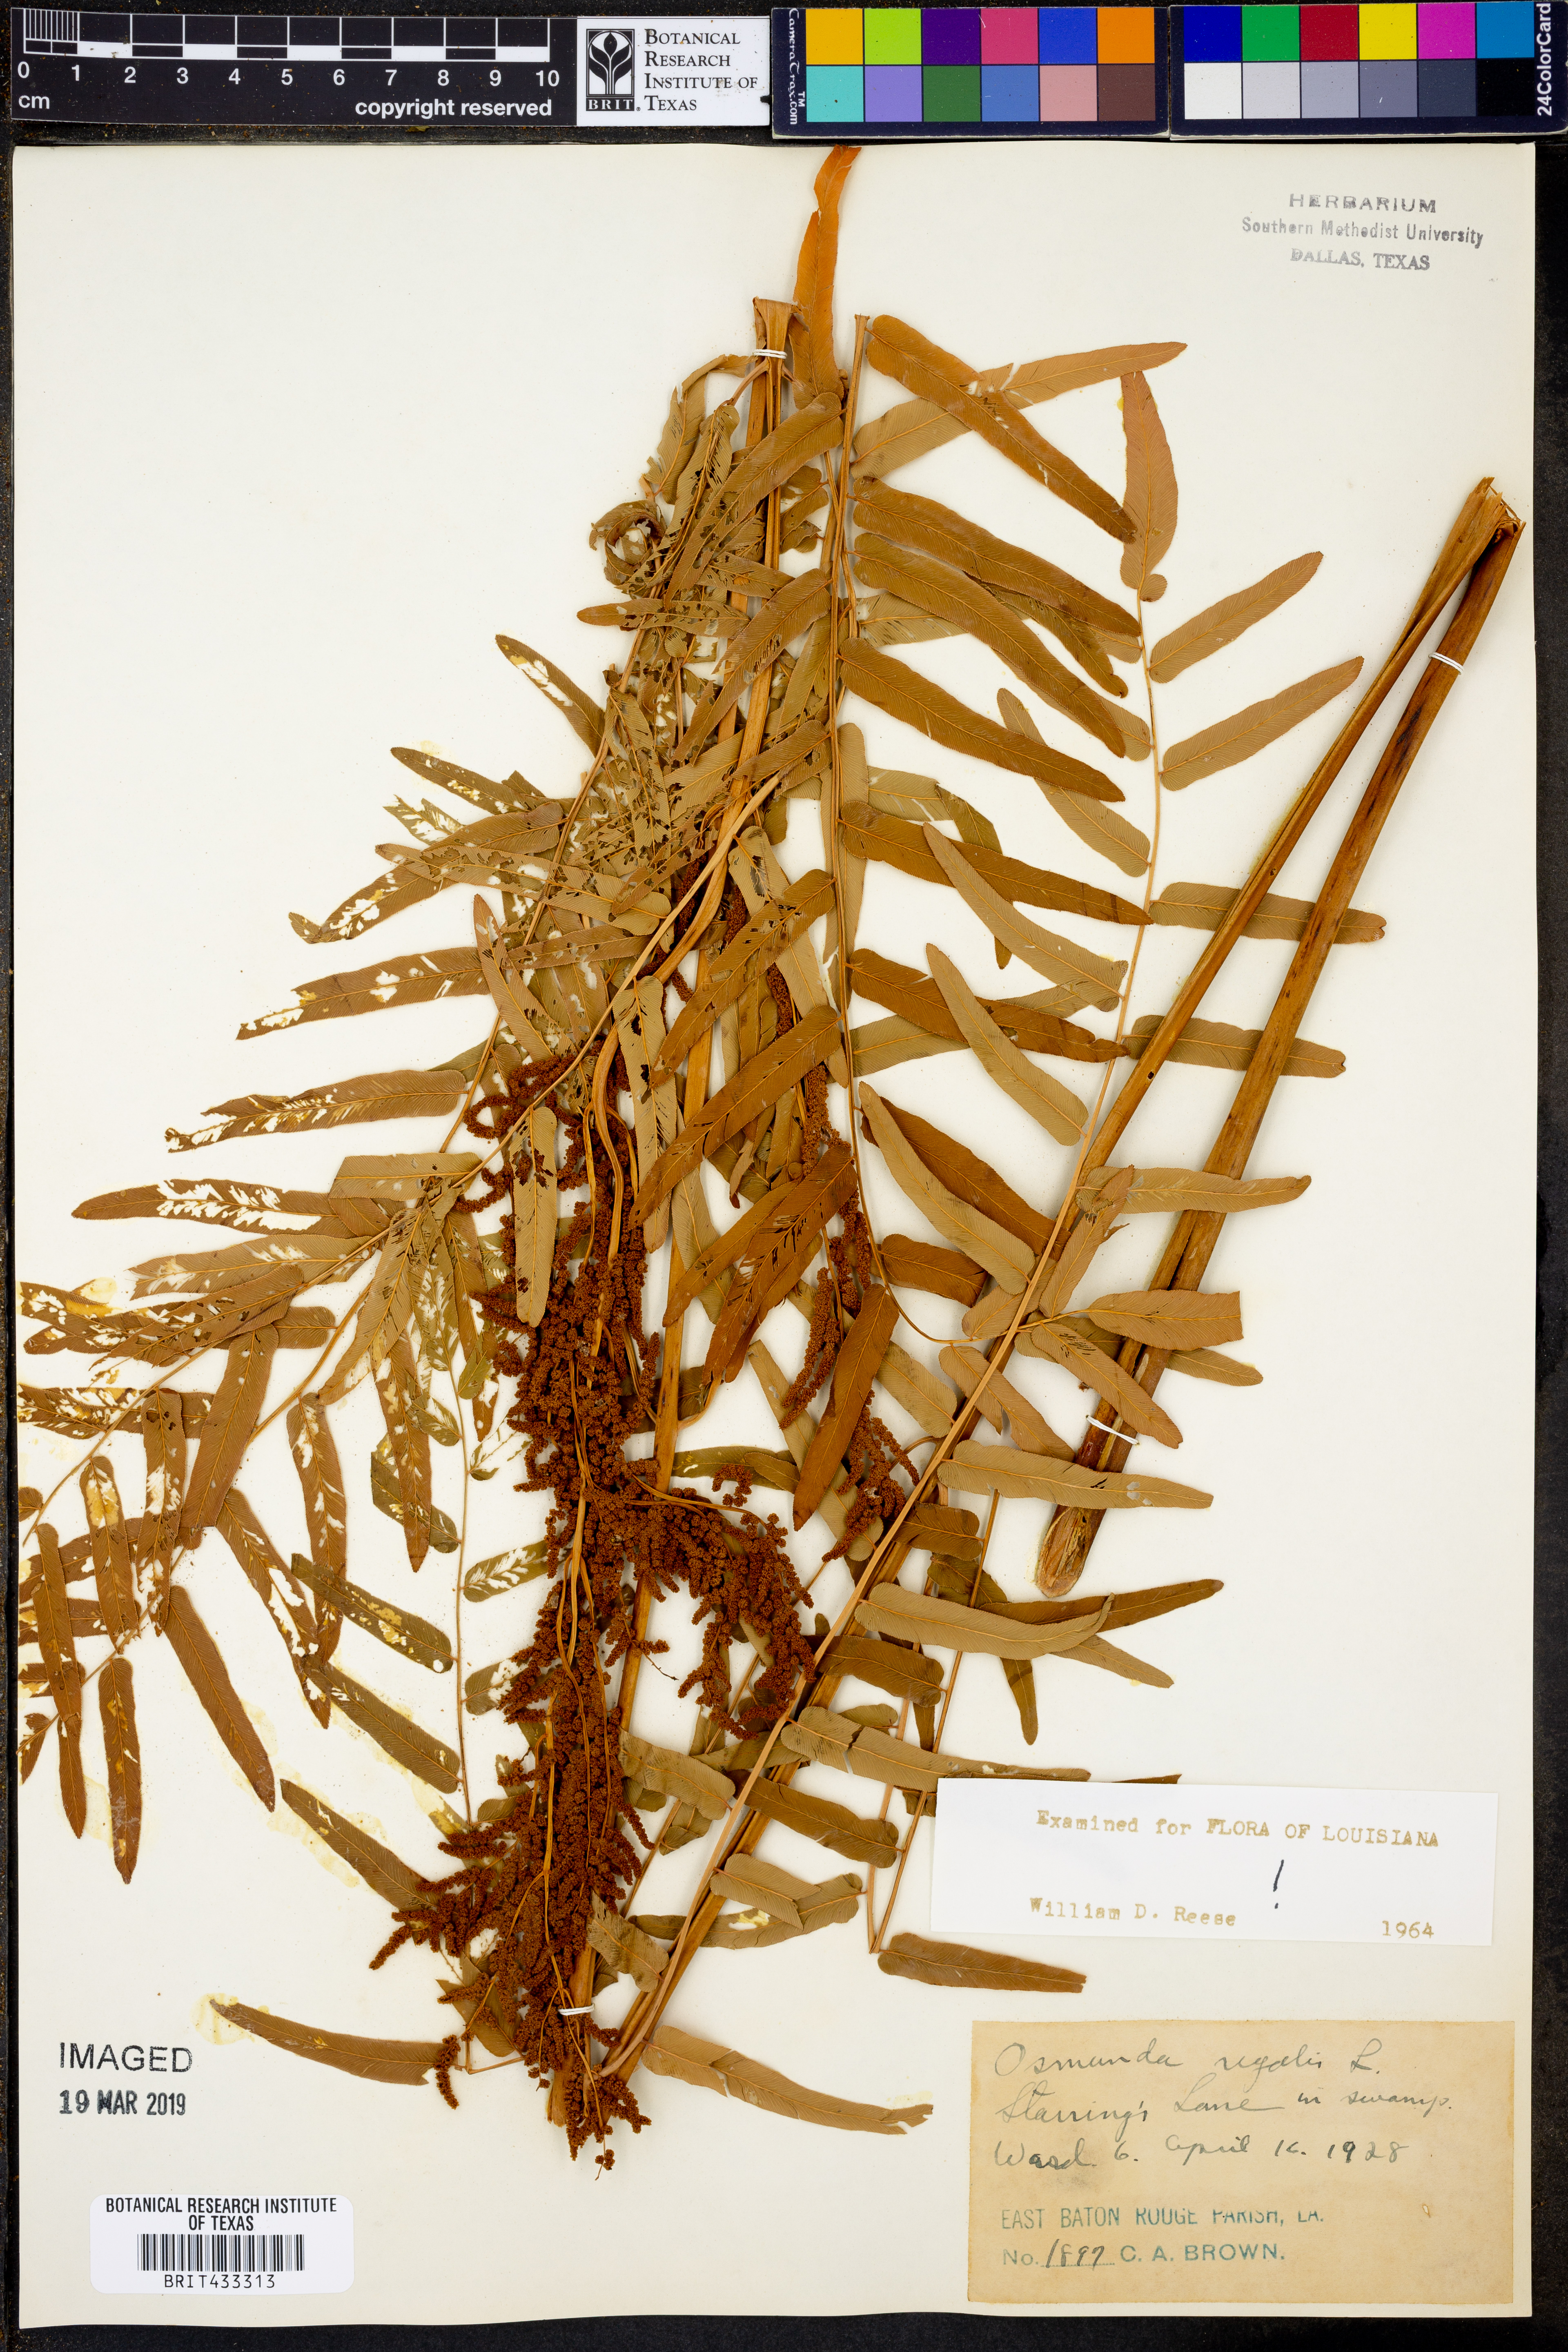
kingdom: Plantae
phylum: Tracheophyta
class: Polypodiopsida
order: Osmundales
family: Osmundaceae
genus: Osmunda
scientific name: Osmunda regalis
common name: Royal fern
